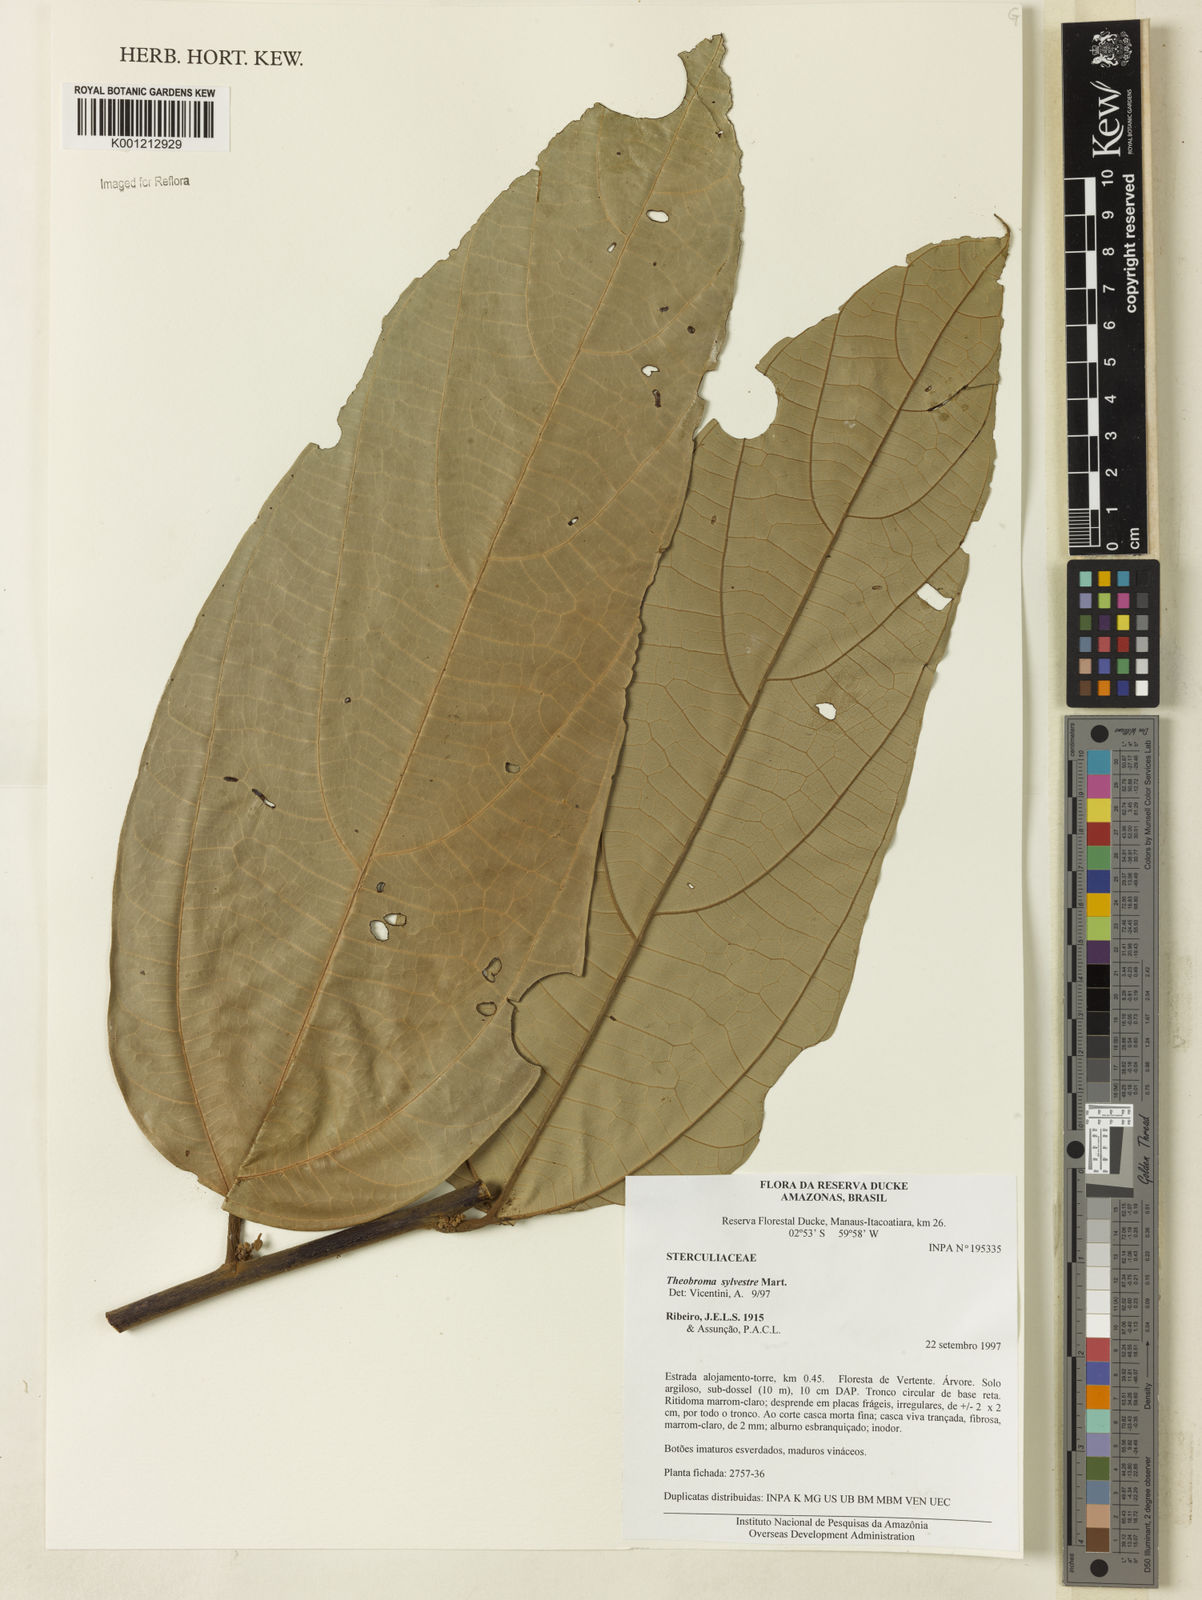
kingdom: Plantae
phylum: Tracheophyta
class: Magnoliopsida
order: Malvales
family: Malvaceae
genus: Theobroma
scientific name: Theobroma sylvestre
